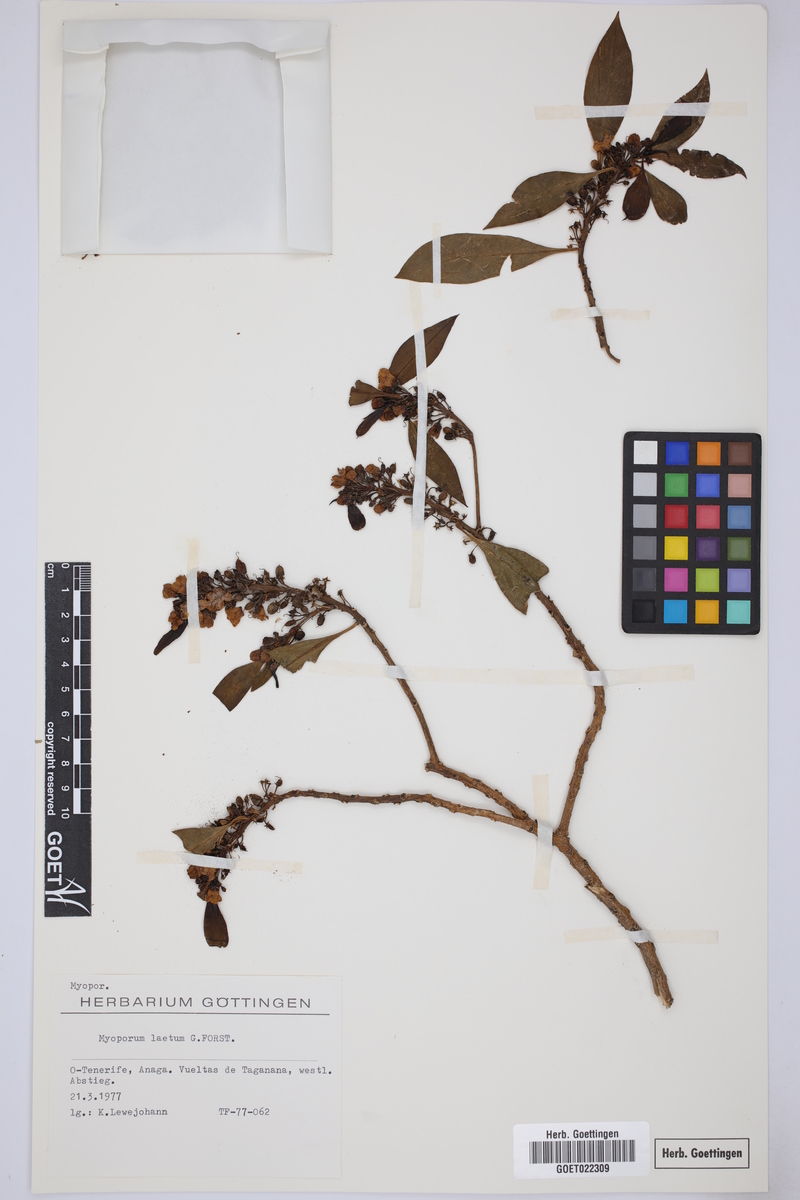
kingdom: Plantae
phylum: Tracheophyta
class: Magnoliopsida
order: Lamiales
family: Scrophulariaceae
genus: Myoporum
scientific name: Myoporum laetum
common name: Ngaio tree
